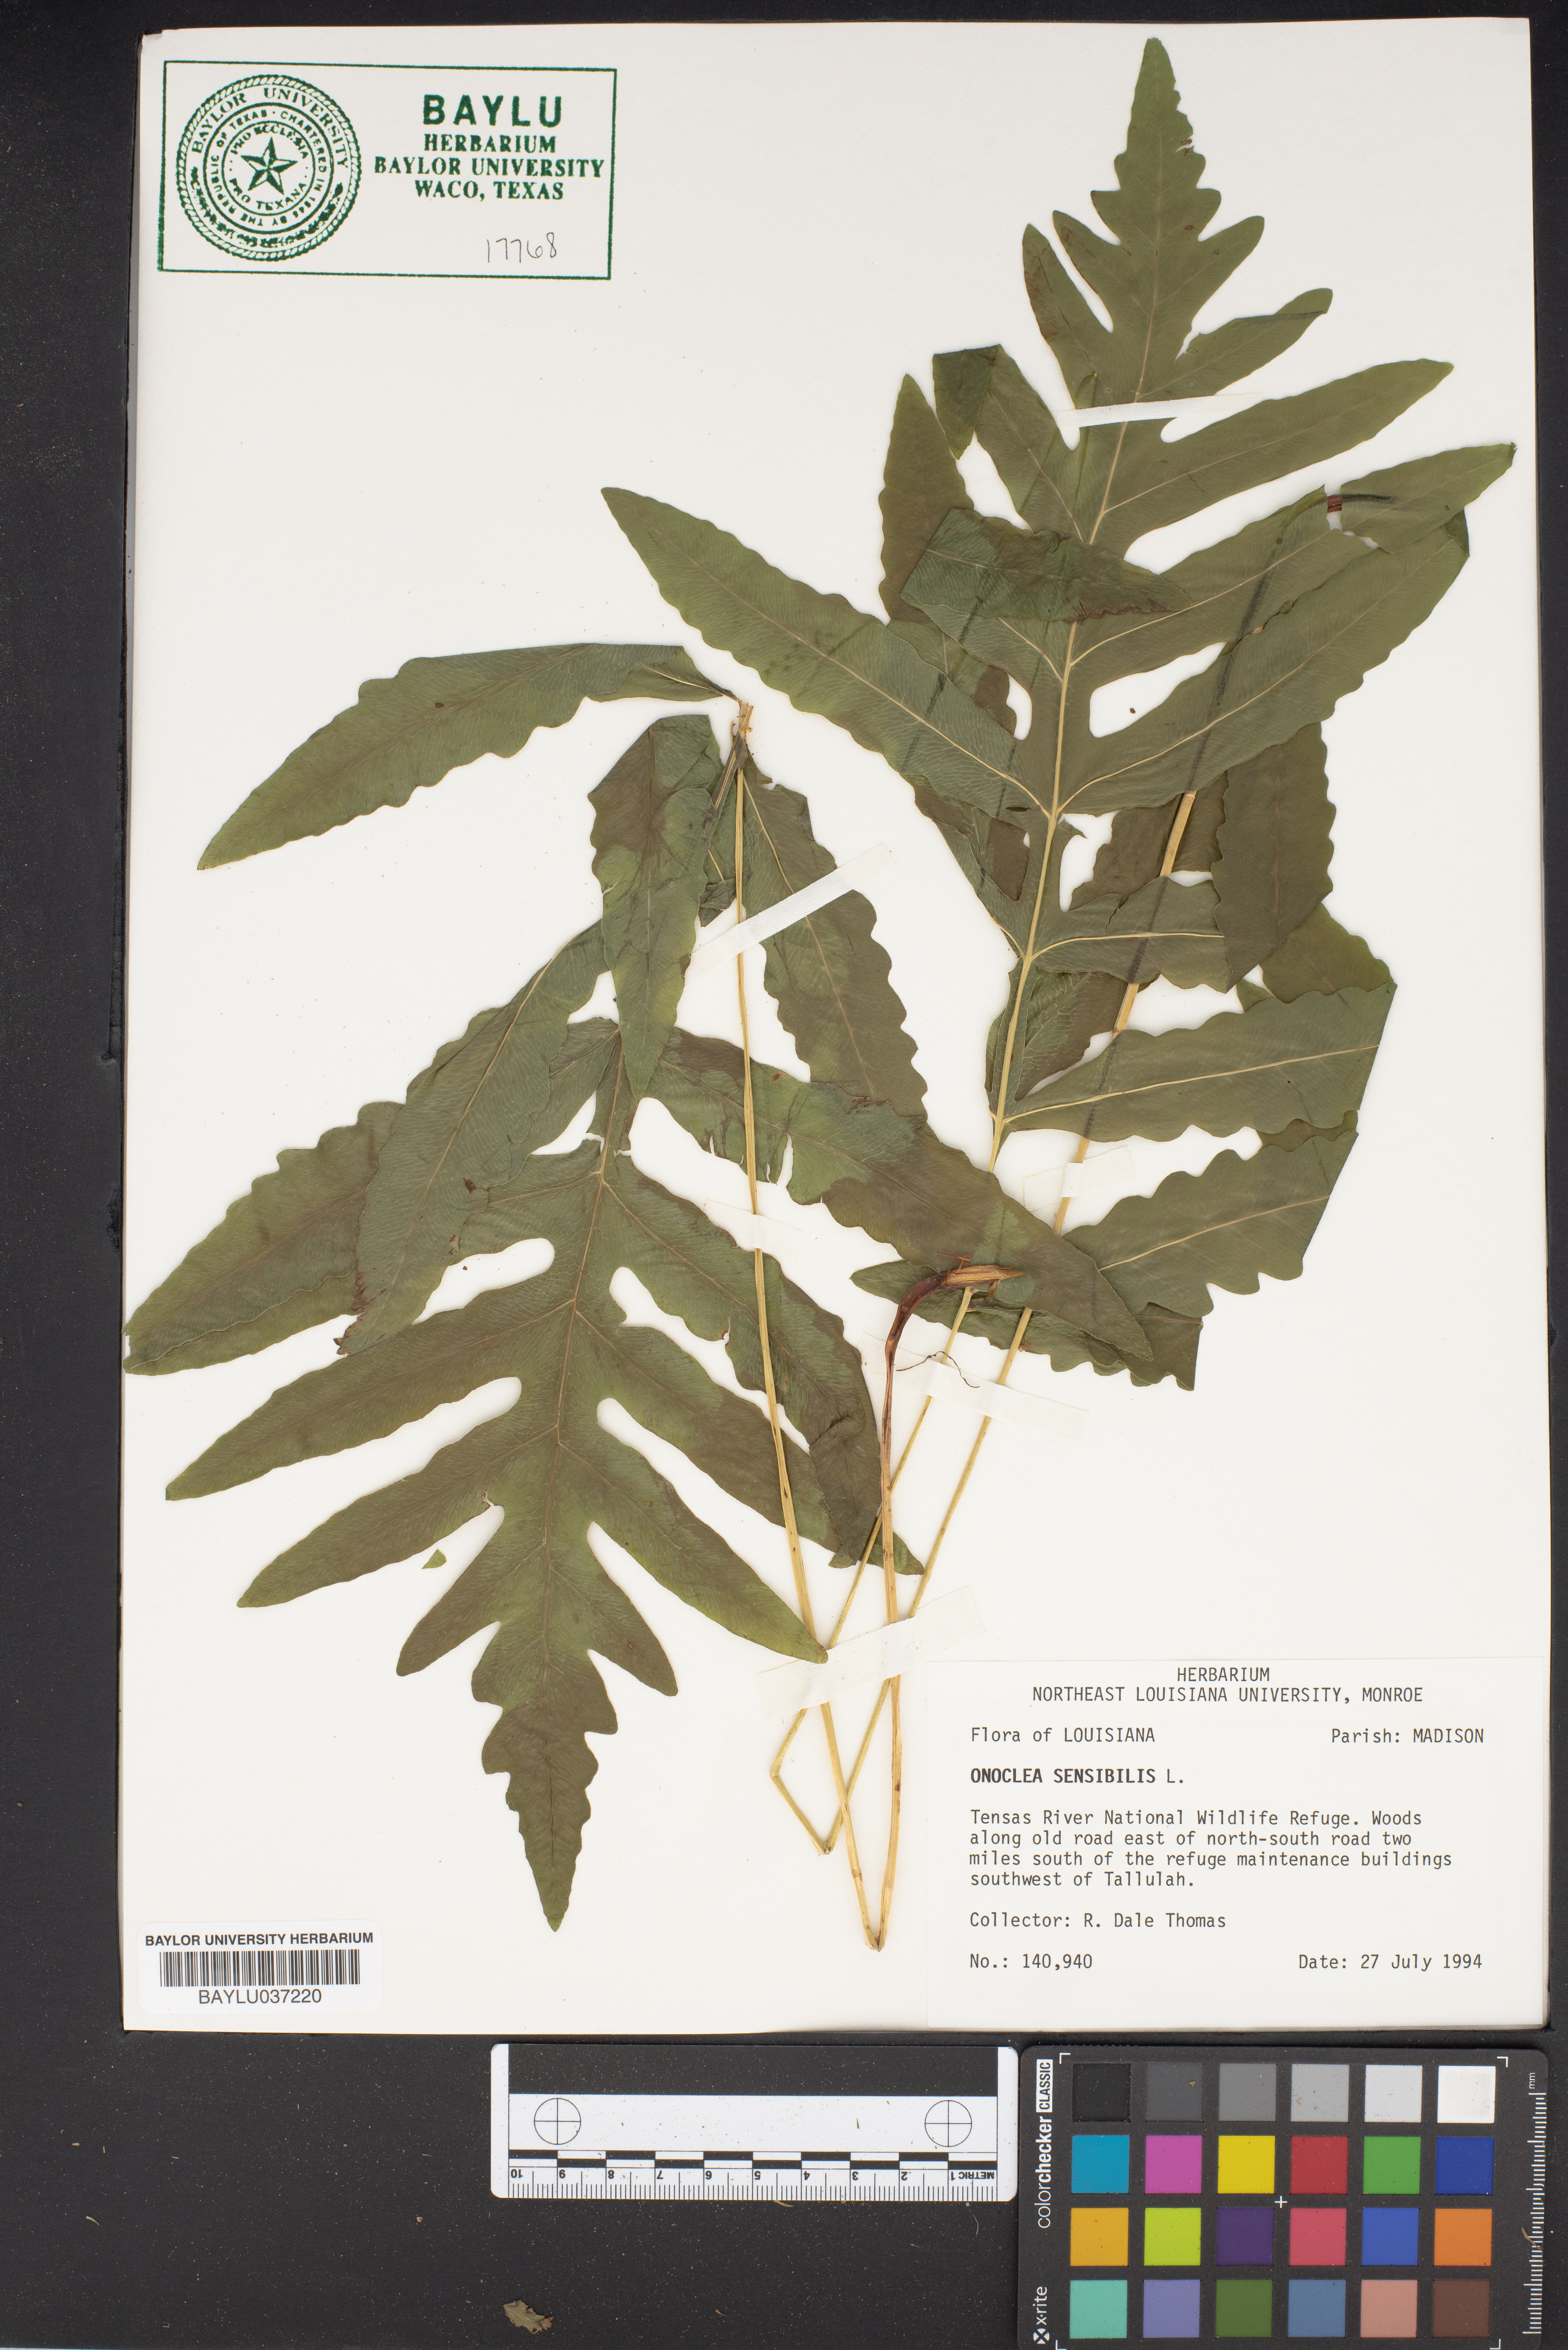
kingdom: Plantae
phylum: Tracheophyta
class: Polypodiopsida
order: Polypodiales
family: Onocleaceae
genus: Onoclea
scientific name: Onoclea sensibilis
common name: Sensitive fern
